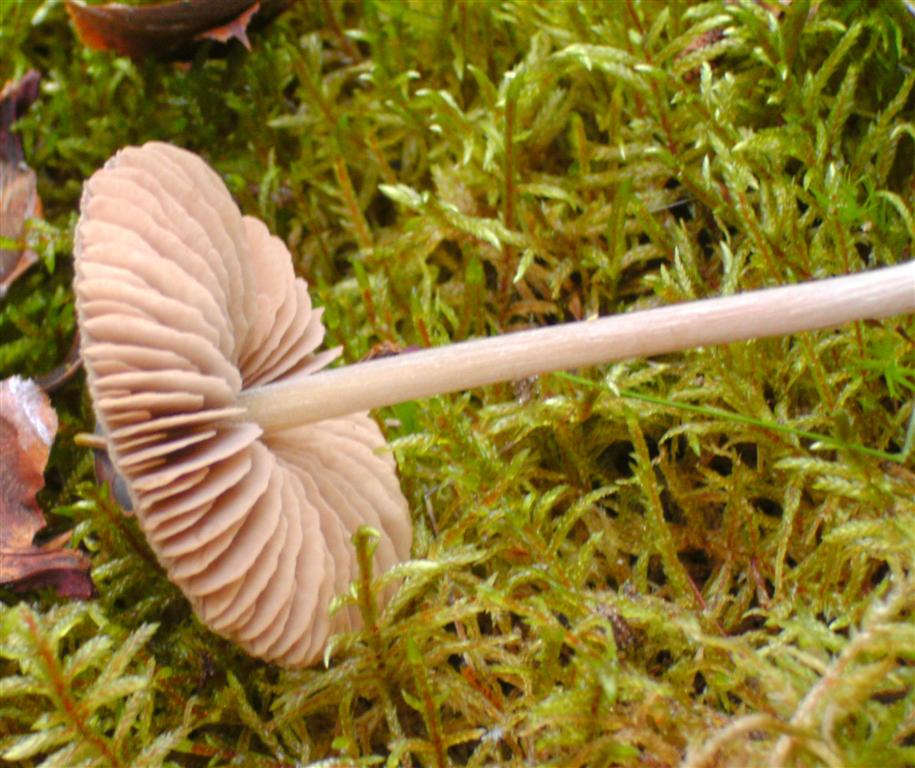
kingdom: Fungi
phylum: Basidiomycota
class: Agaricomycetes
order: Agaricales
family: Entolomataceae
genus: Entoloma
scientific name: Entoloma pallescens
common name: tidlig rødblad
